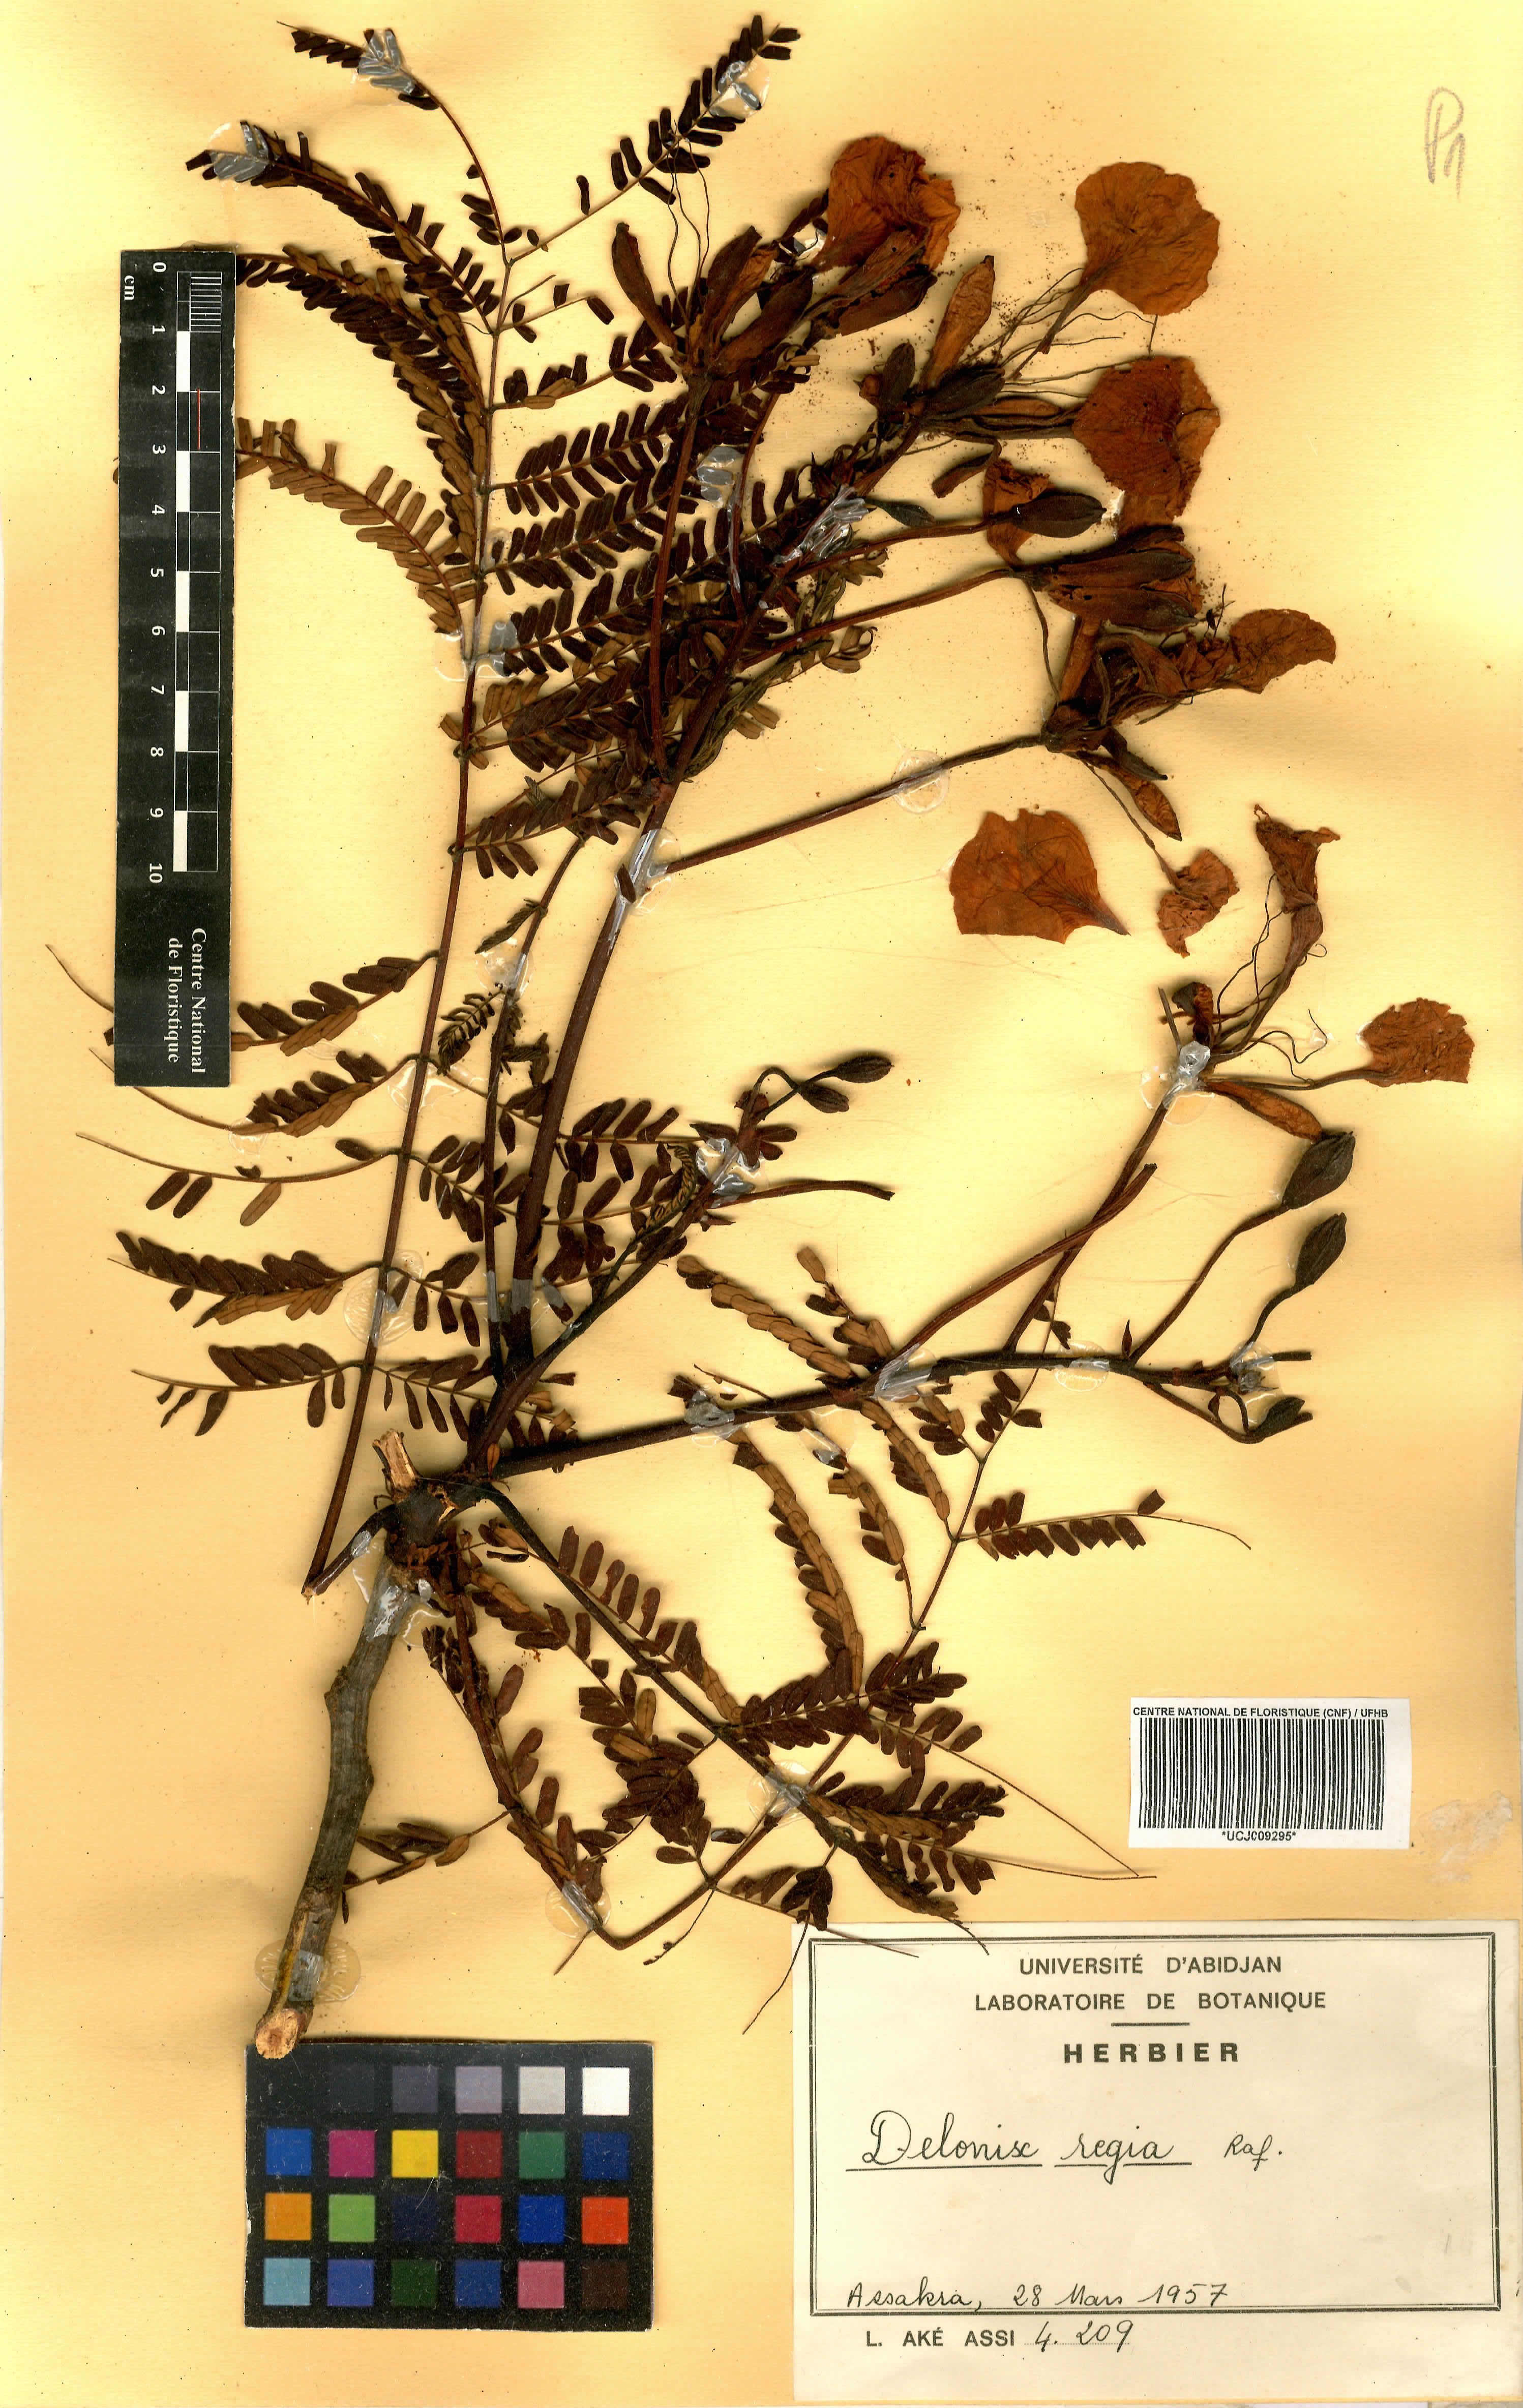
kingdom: Plantae
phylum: Tracheophyta
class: Magnoliopsida
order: Fabales
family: Fabaceae
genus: Delonix
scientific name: Delonix regia
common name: Royal poinciana
